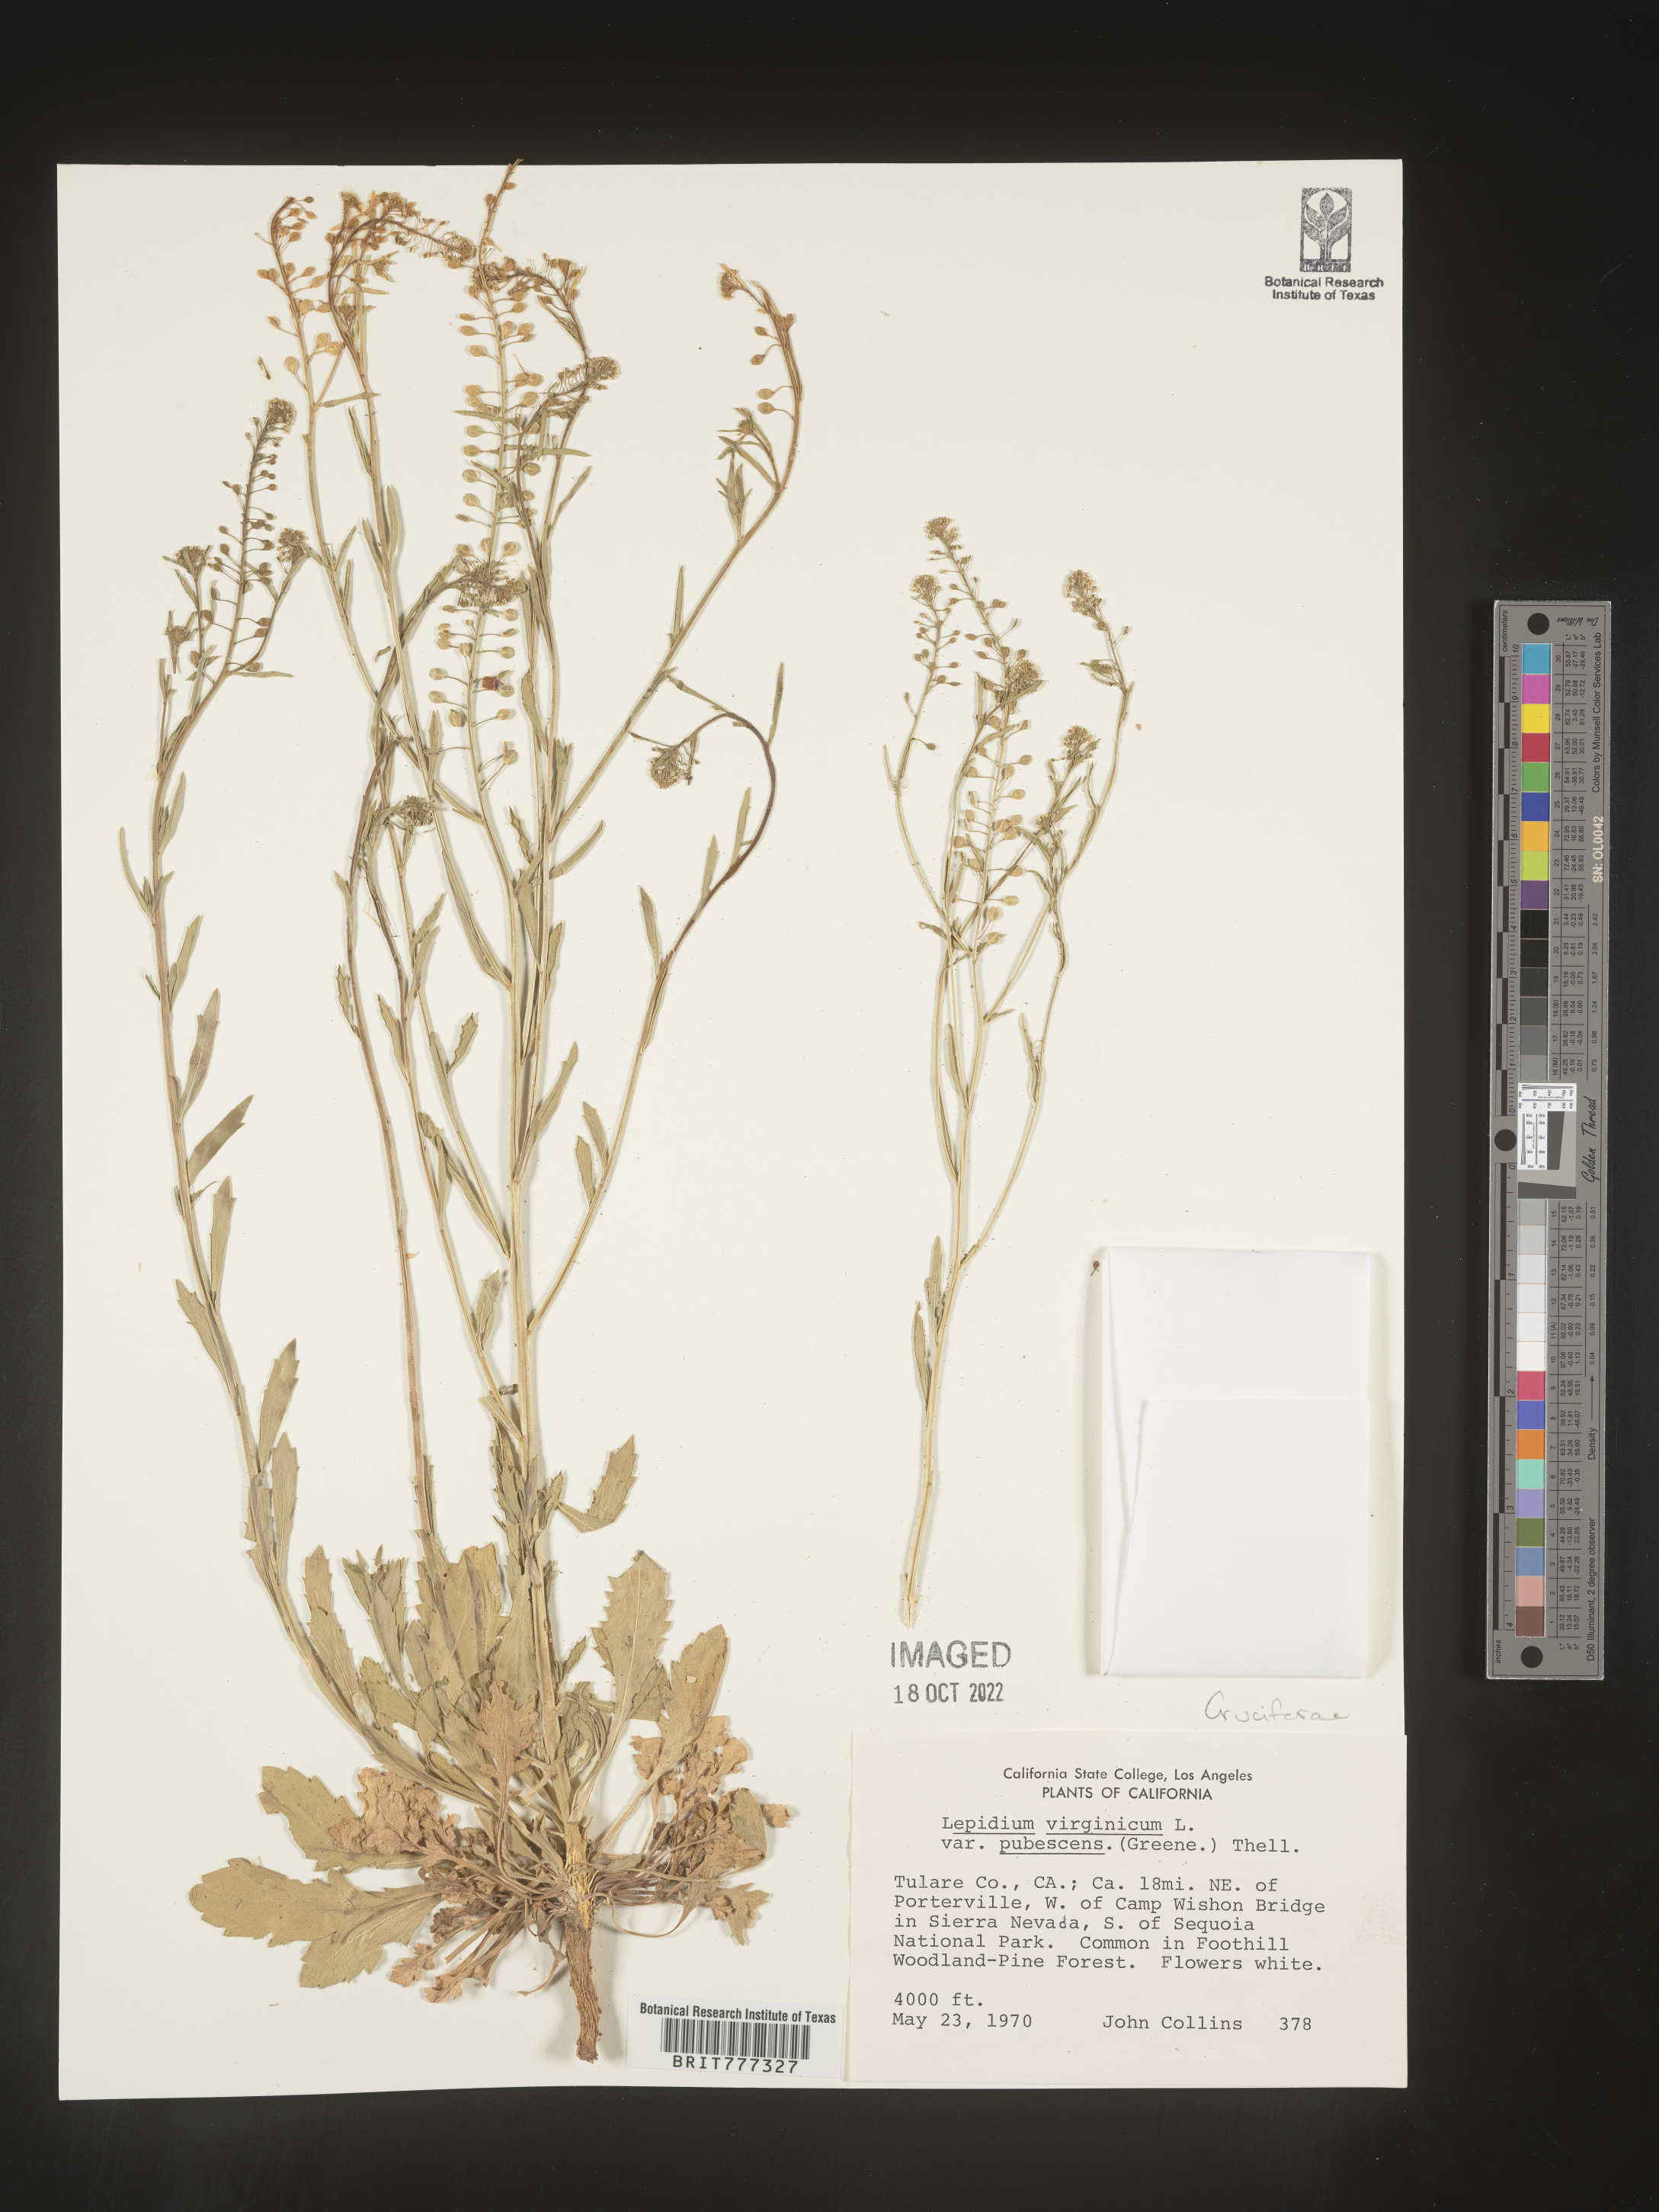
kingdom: Plantae
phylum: Tracheophyta
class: Magnoliopsida
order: Brassicales
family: Brassicaceae
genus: Lepidium
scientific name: Lepidium virginicum
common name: Least pepperwort
